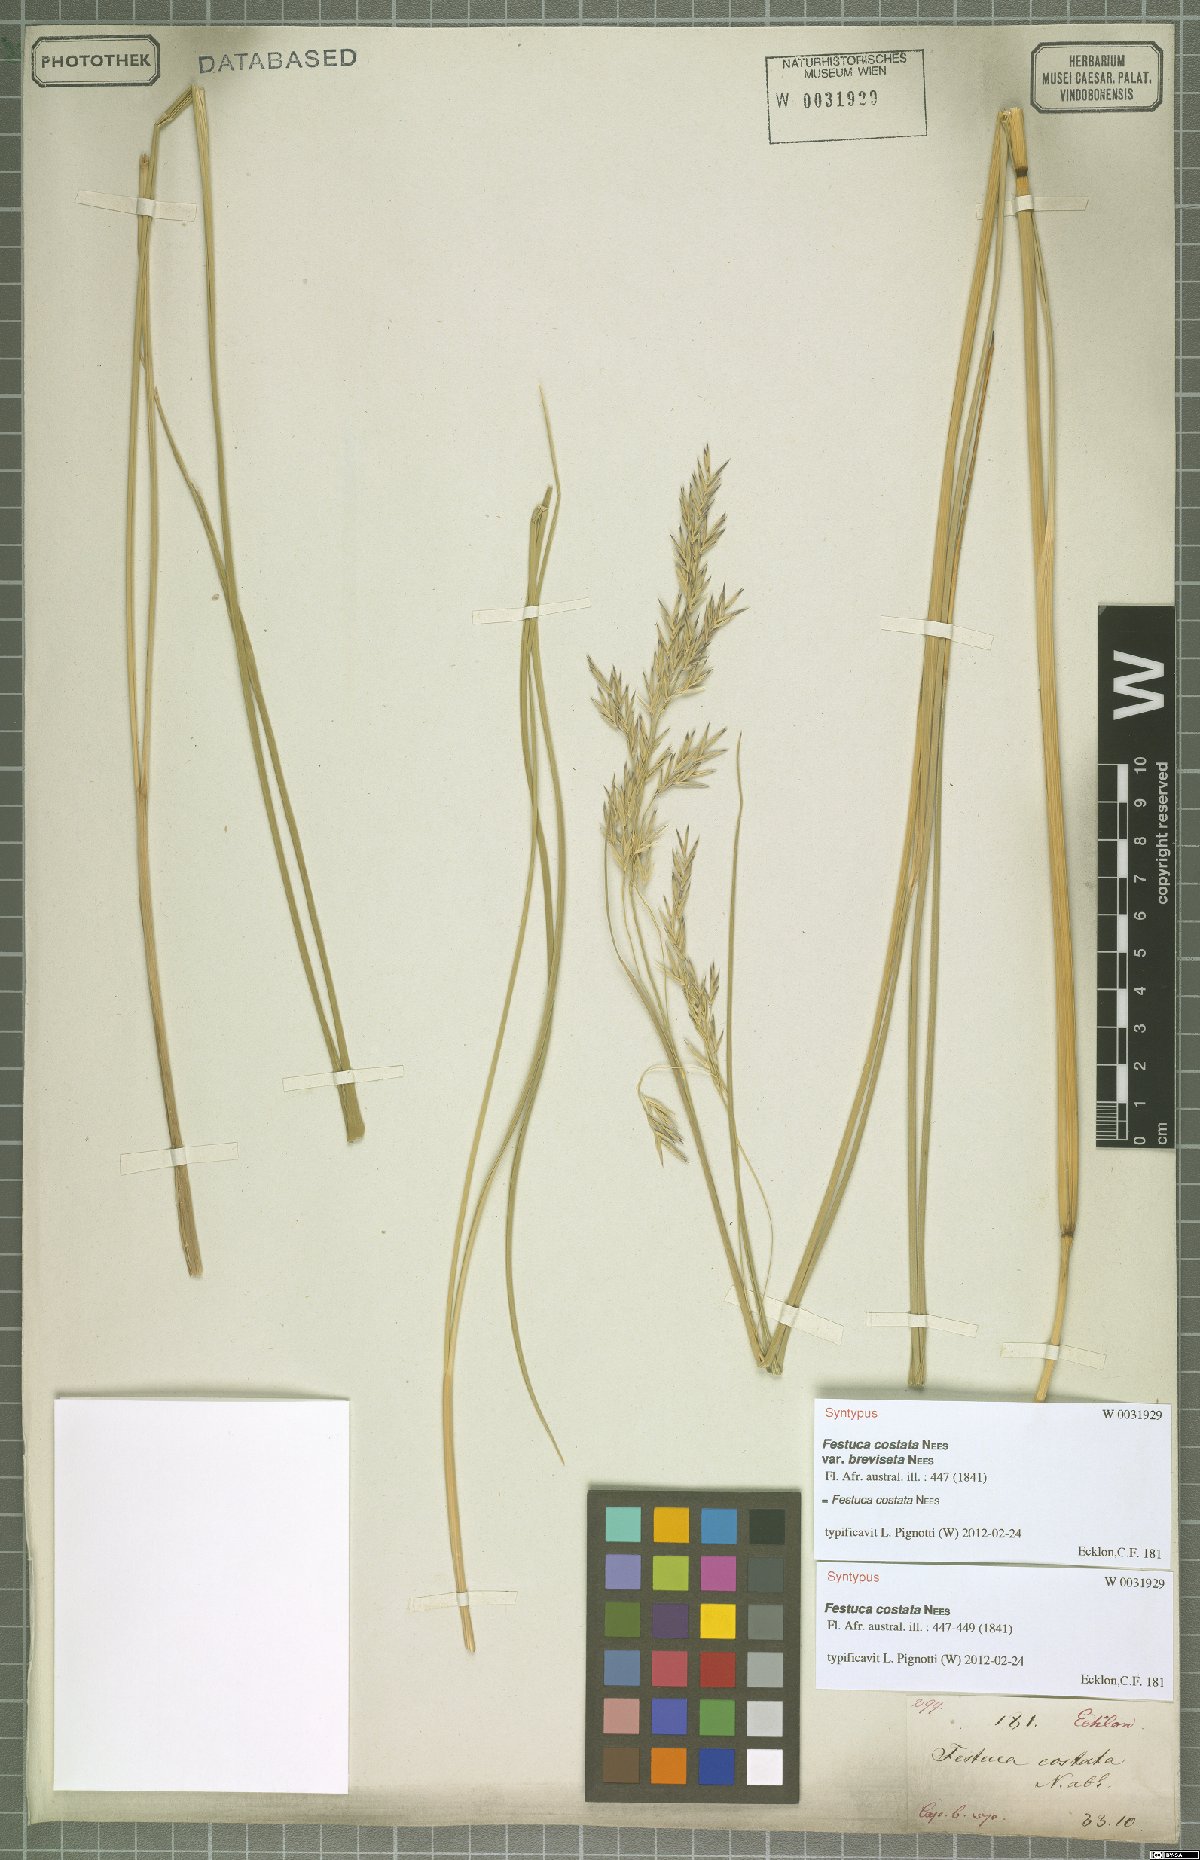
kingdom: Plantae
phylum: Tracheophyta
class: Liliopsida
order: Poales
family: Poaceae
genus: Festuca
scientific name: Festuca costata
